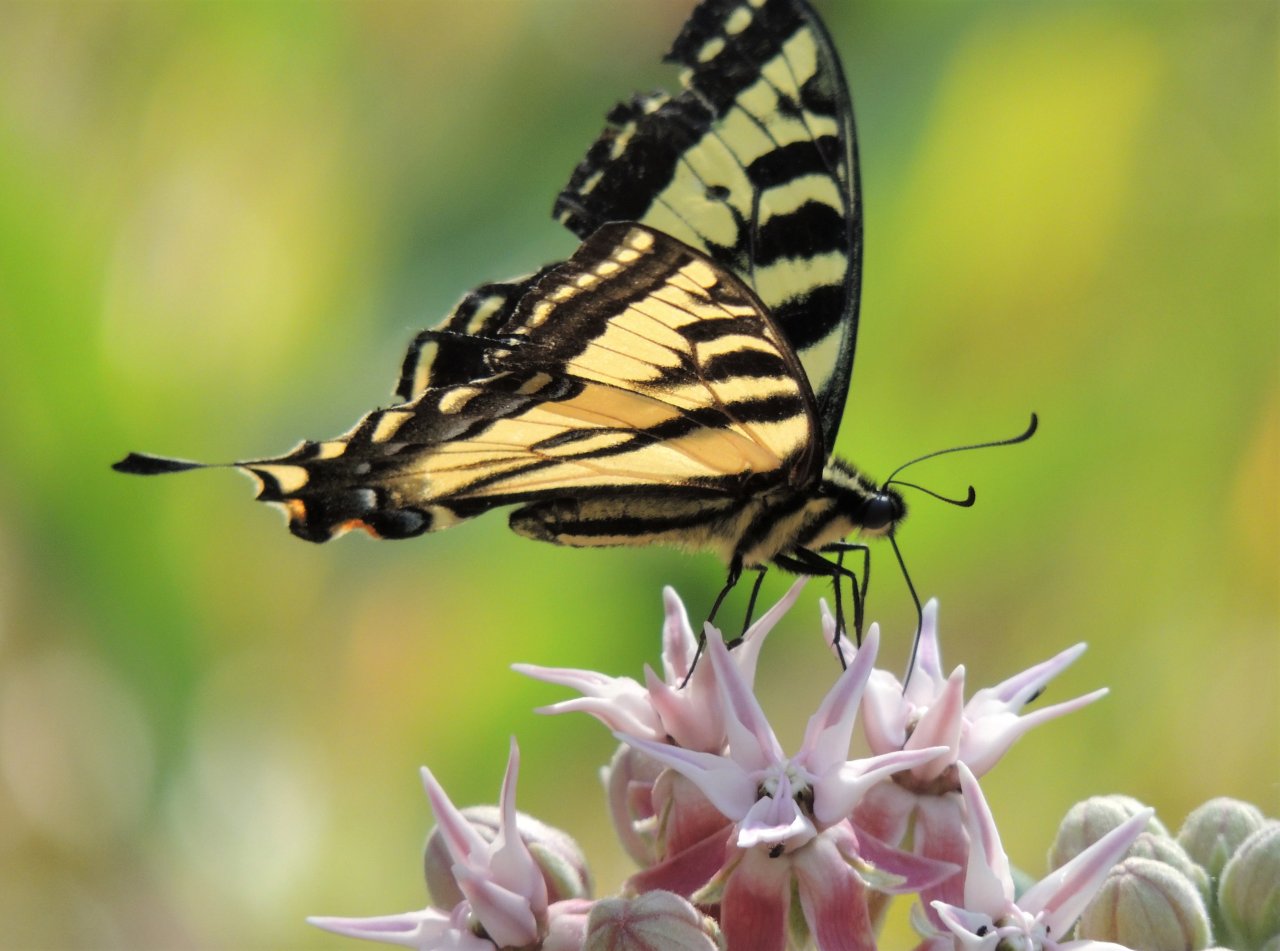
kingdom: Animalia
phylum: Arthropoda
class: Insecta
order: Lepidoptera
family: Papilionidae
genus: Pterourus
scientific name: Pterourus rutulus
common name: Western Tiger Swallowtail
